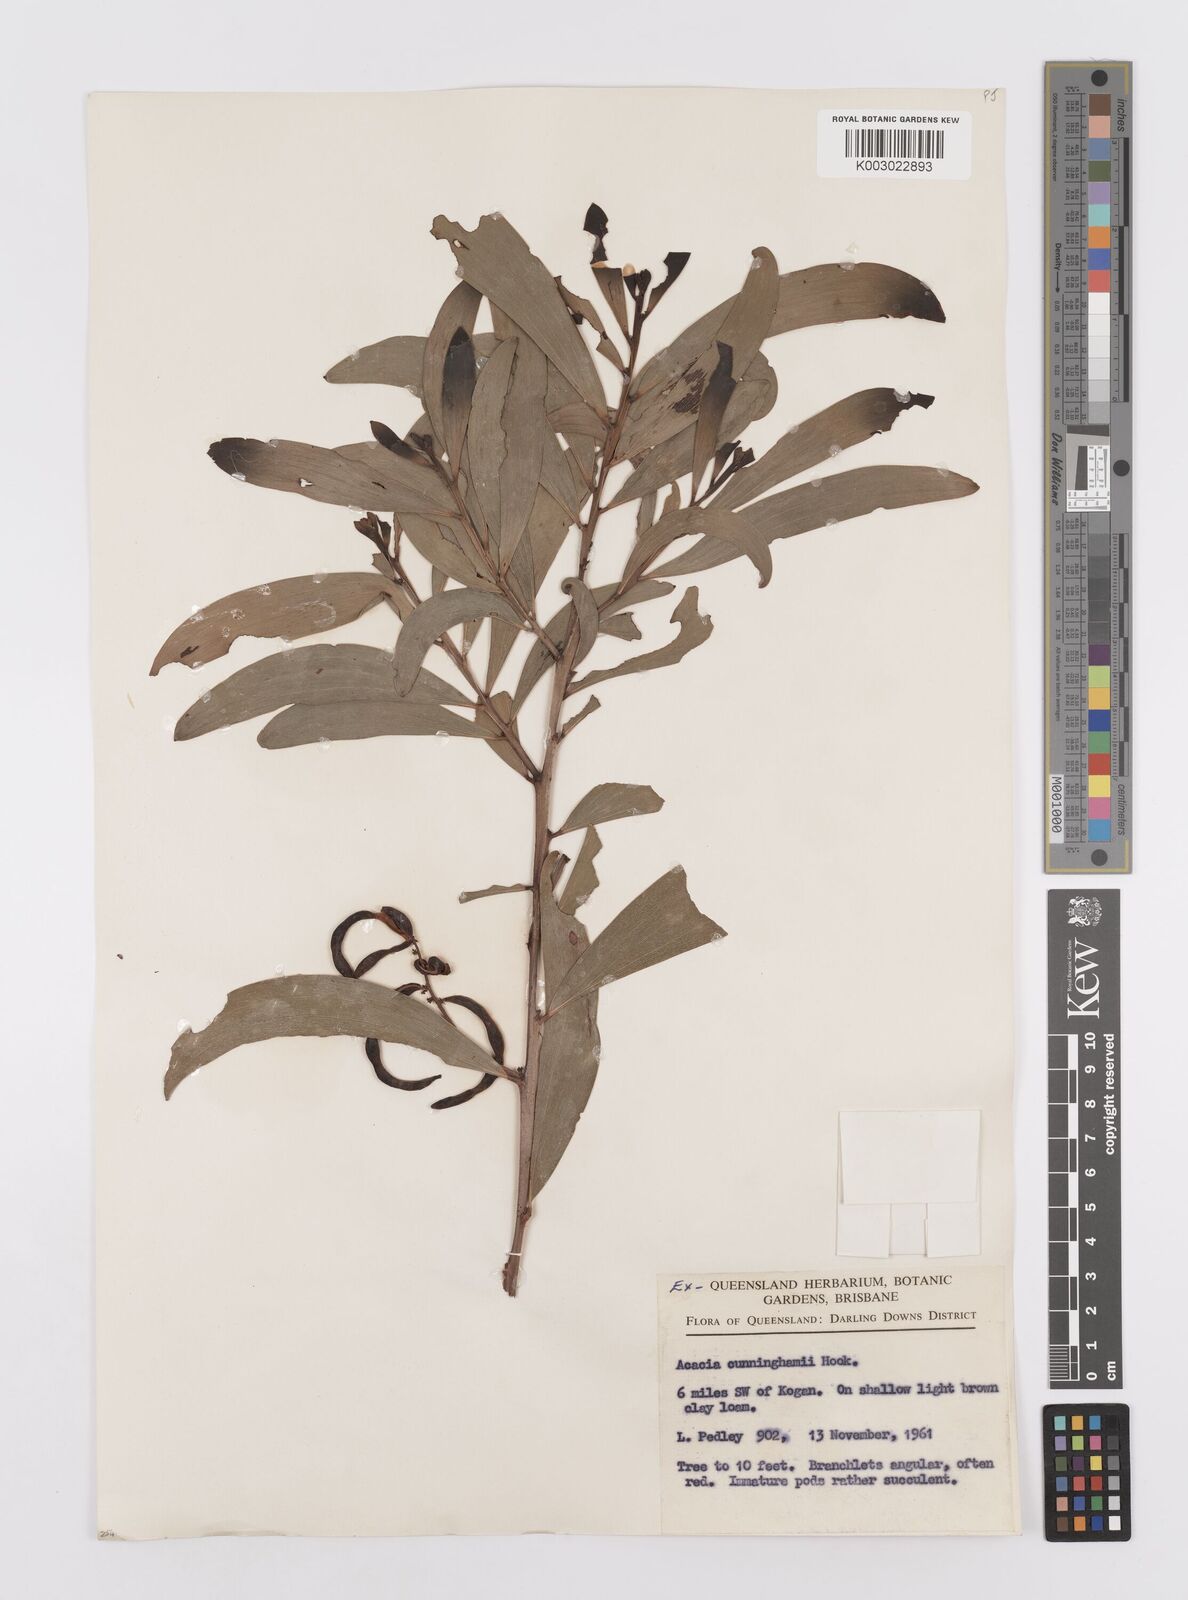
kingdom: Plantae
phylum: Tracheophyta
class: Magnoliopsida
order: Fabales
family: Fabaceae
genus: Acacia
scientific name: Acacia longispicata
